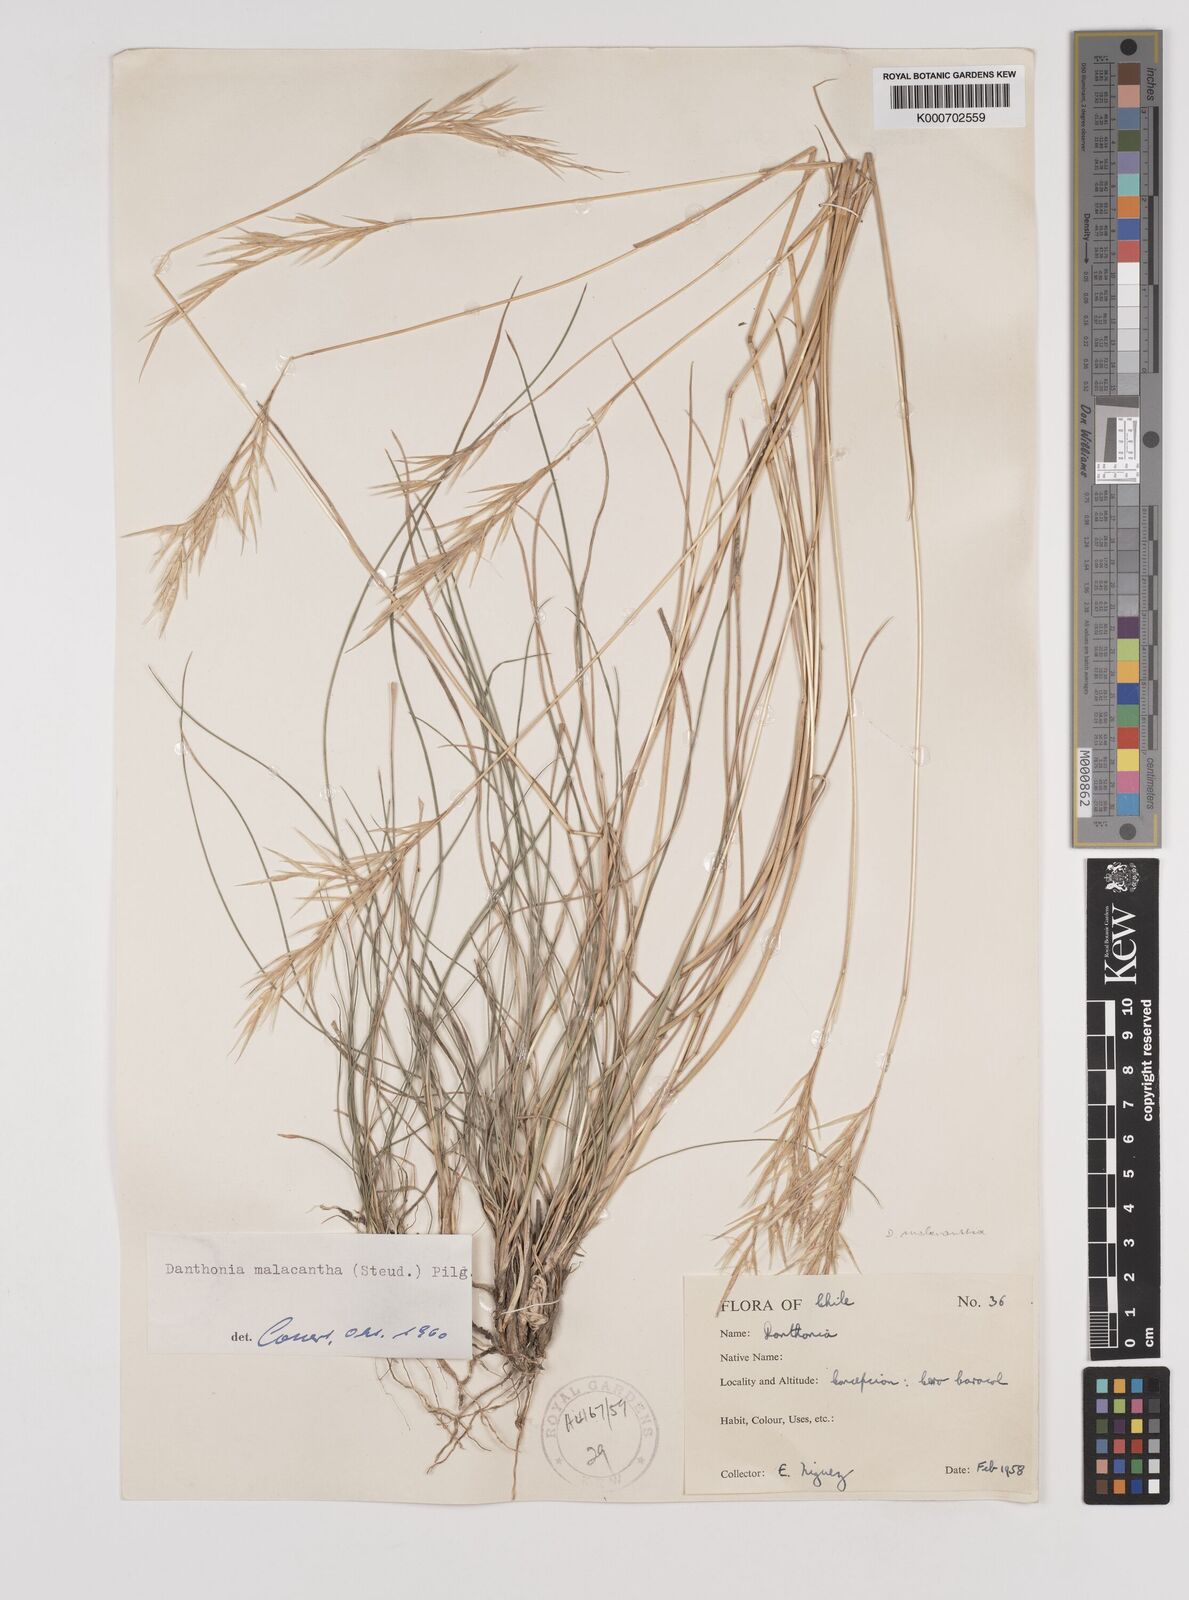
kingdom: Plantae
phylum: Tracheophyta
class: Liliopsida
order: Poales
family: Poaceae
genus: Danthonia
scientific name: Danthonia malacantha
